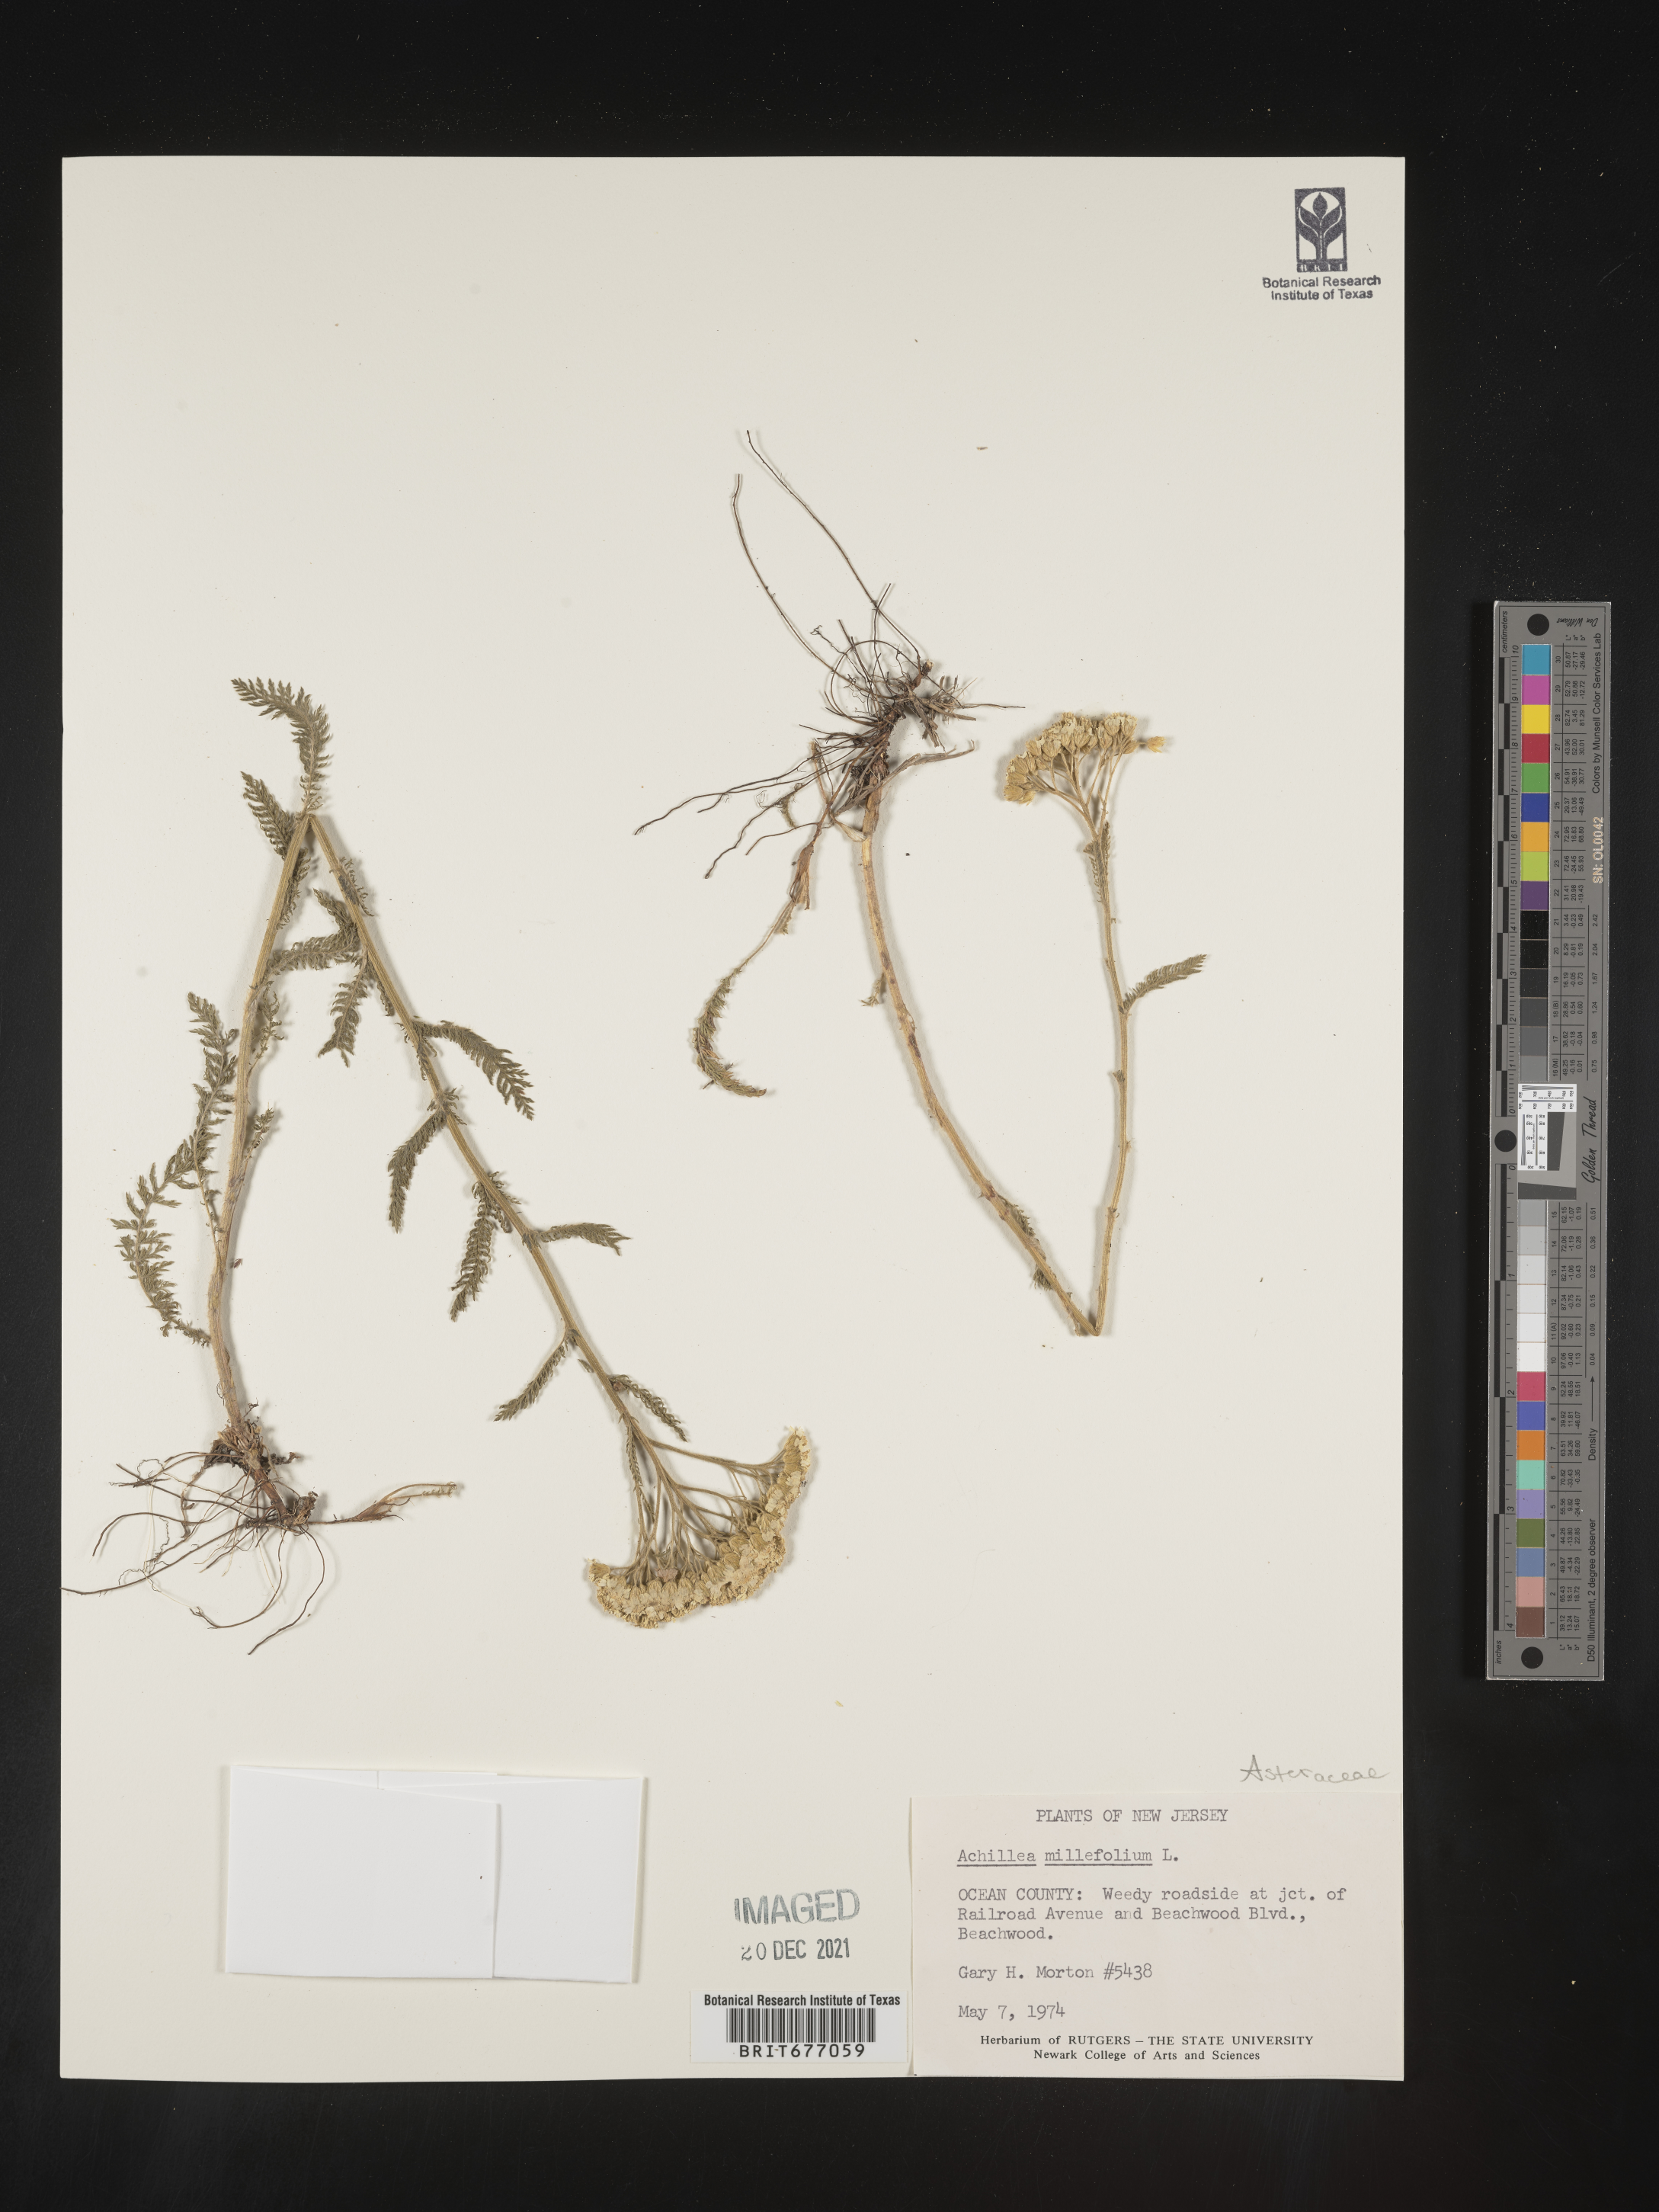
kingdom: Plantae
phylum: Tracheophyta
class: Magnoliopsida
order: Asterales
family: Asteraceae
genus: Achillea
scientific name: Achillea millefolium
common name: Yarrow
